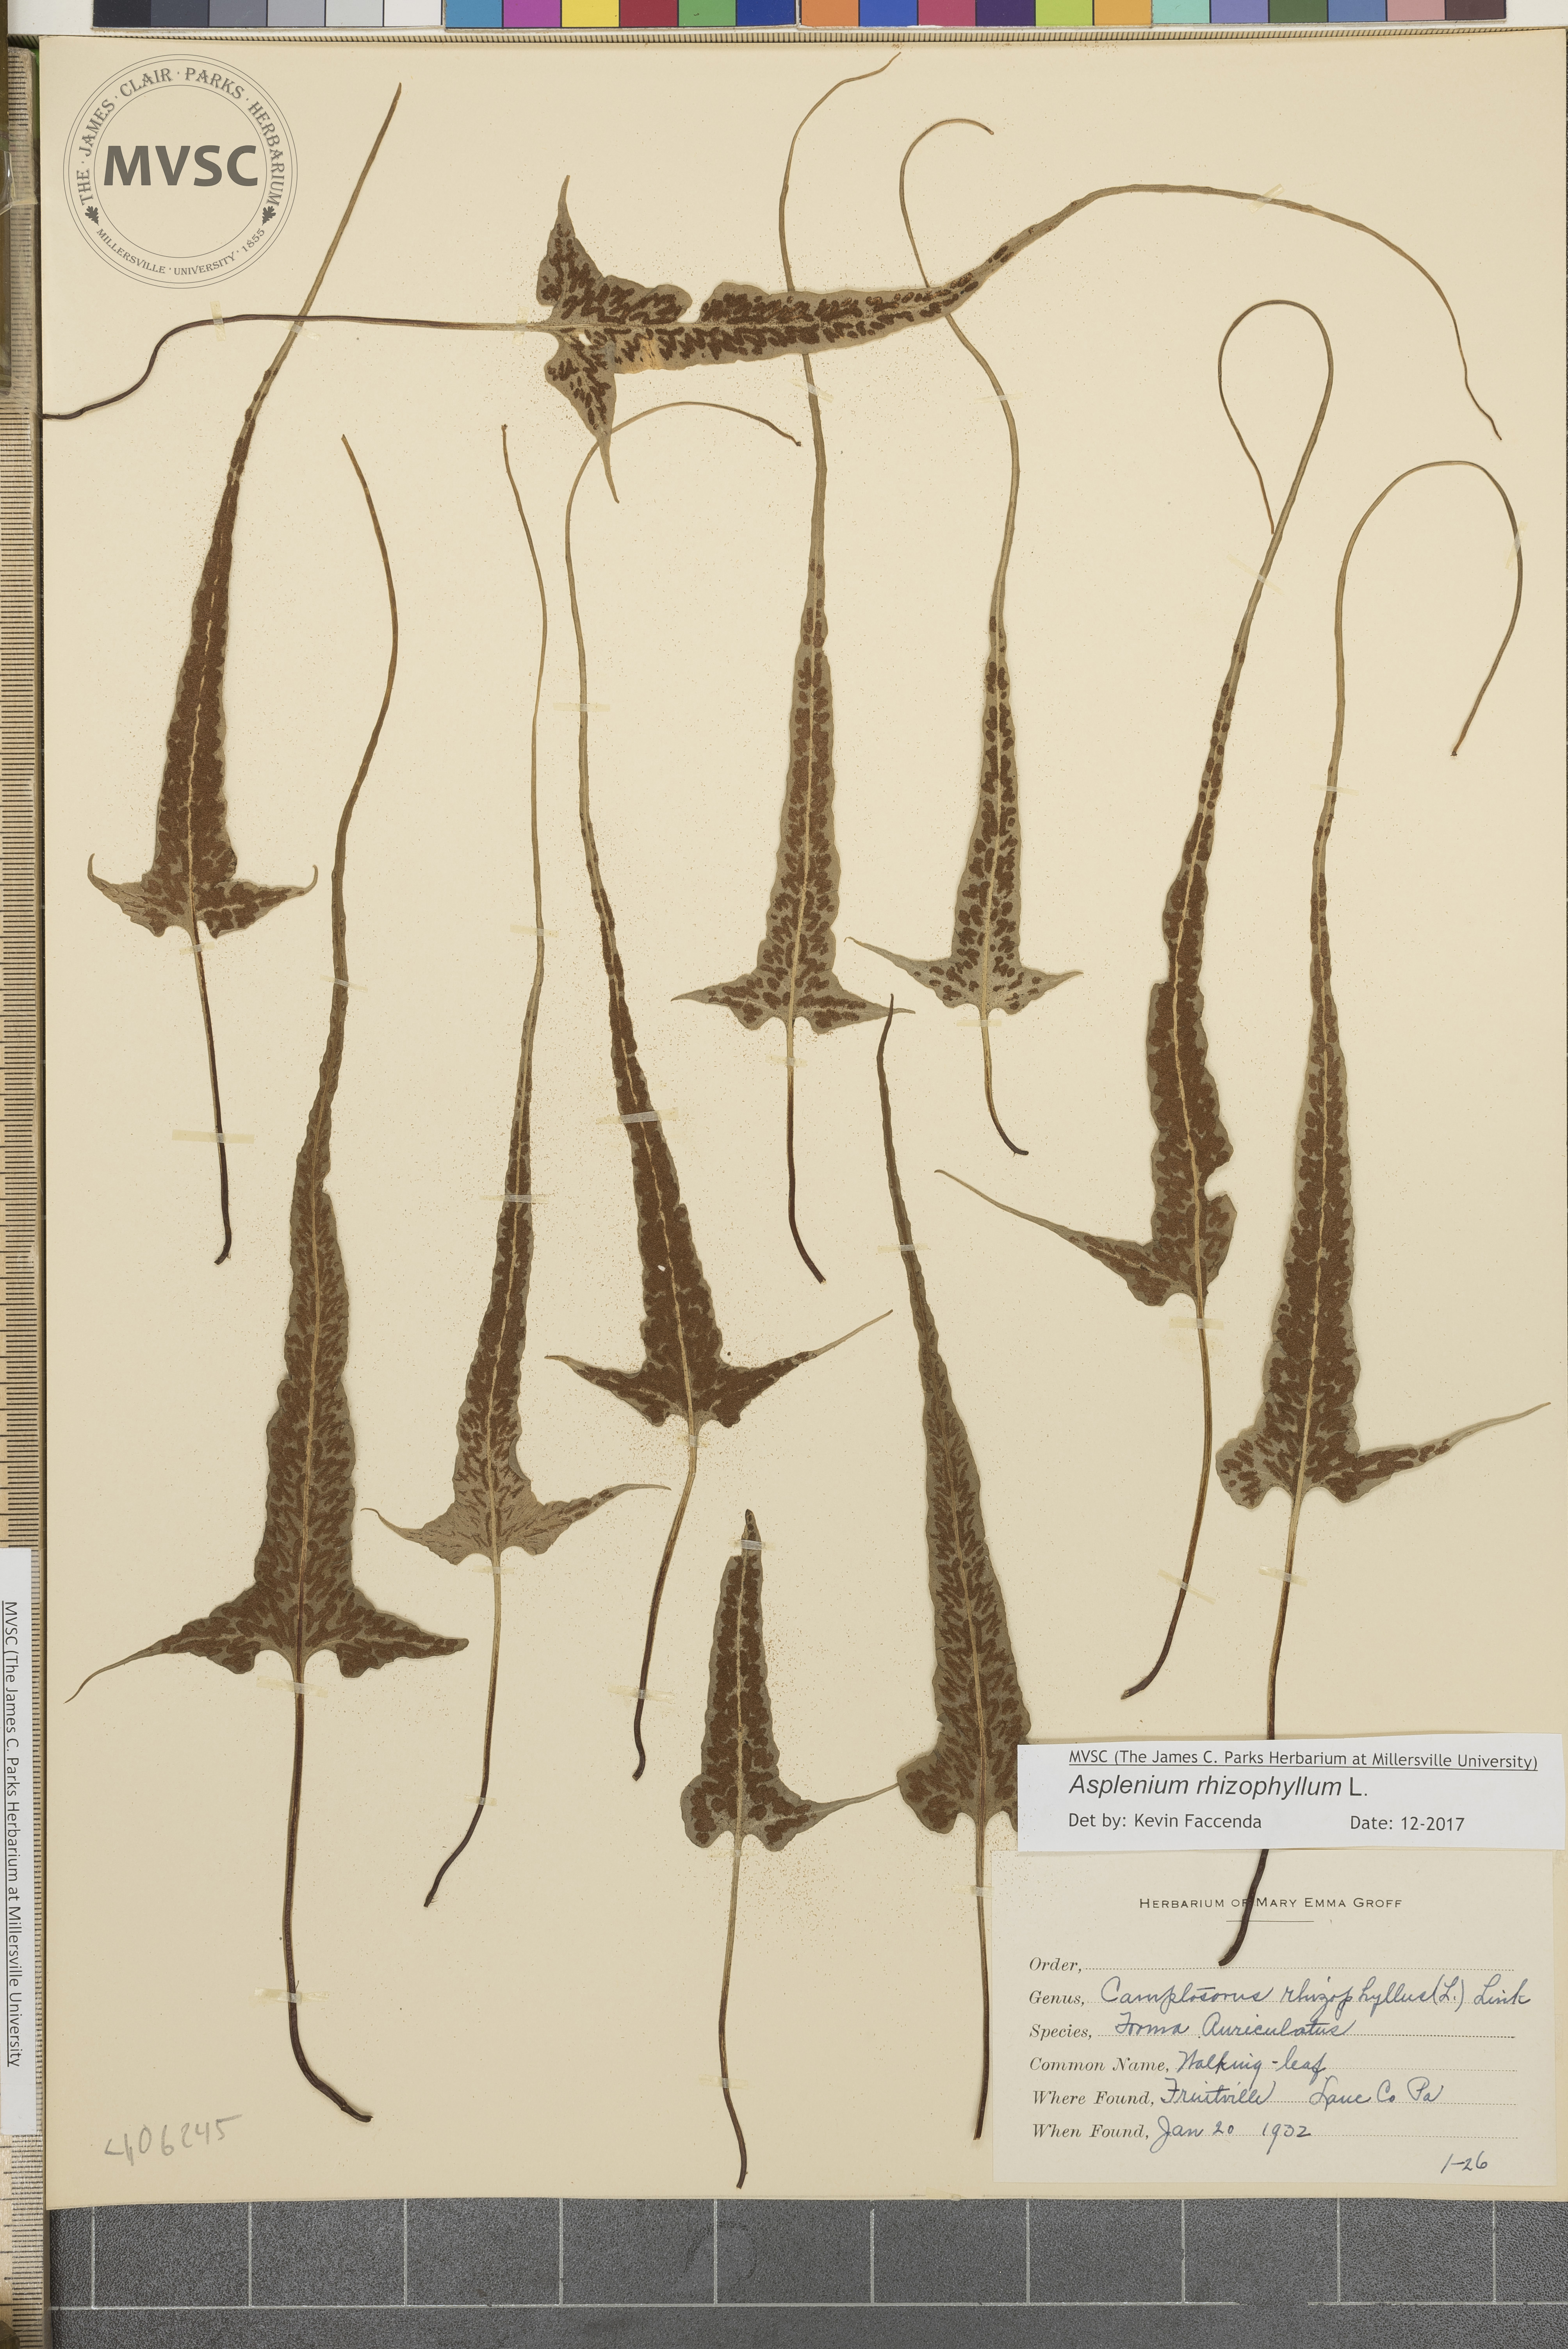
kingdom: Plantae
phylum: Tracheophyta
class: Polypodiopsida
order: Polypodiales
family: Aspleniaceae
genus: Asplenium
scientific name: Asplenium rhizophyllum
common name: Walking fern
